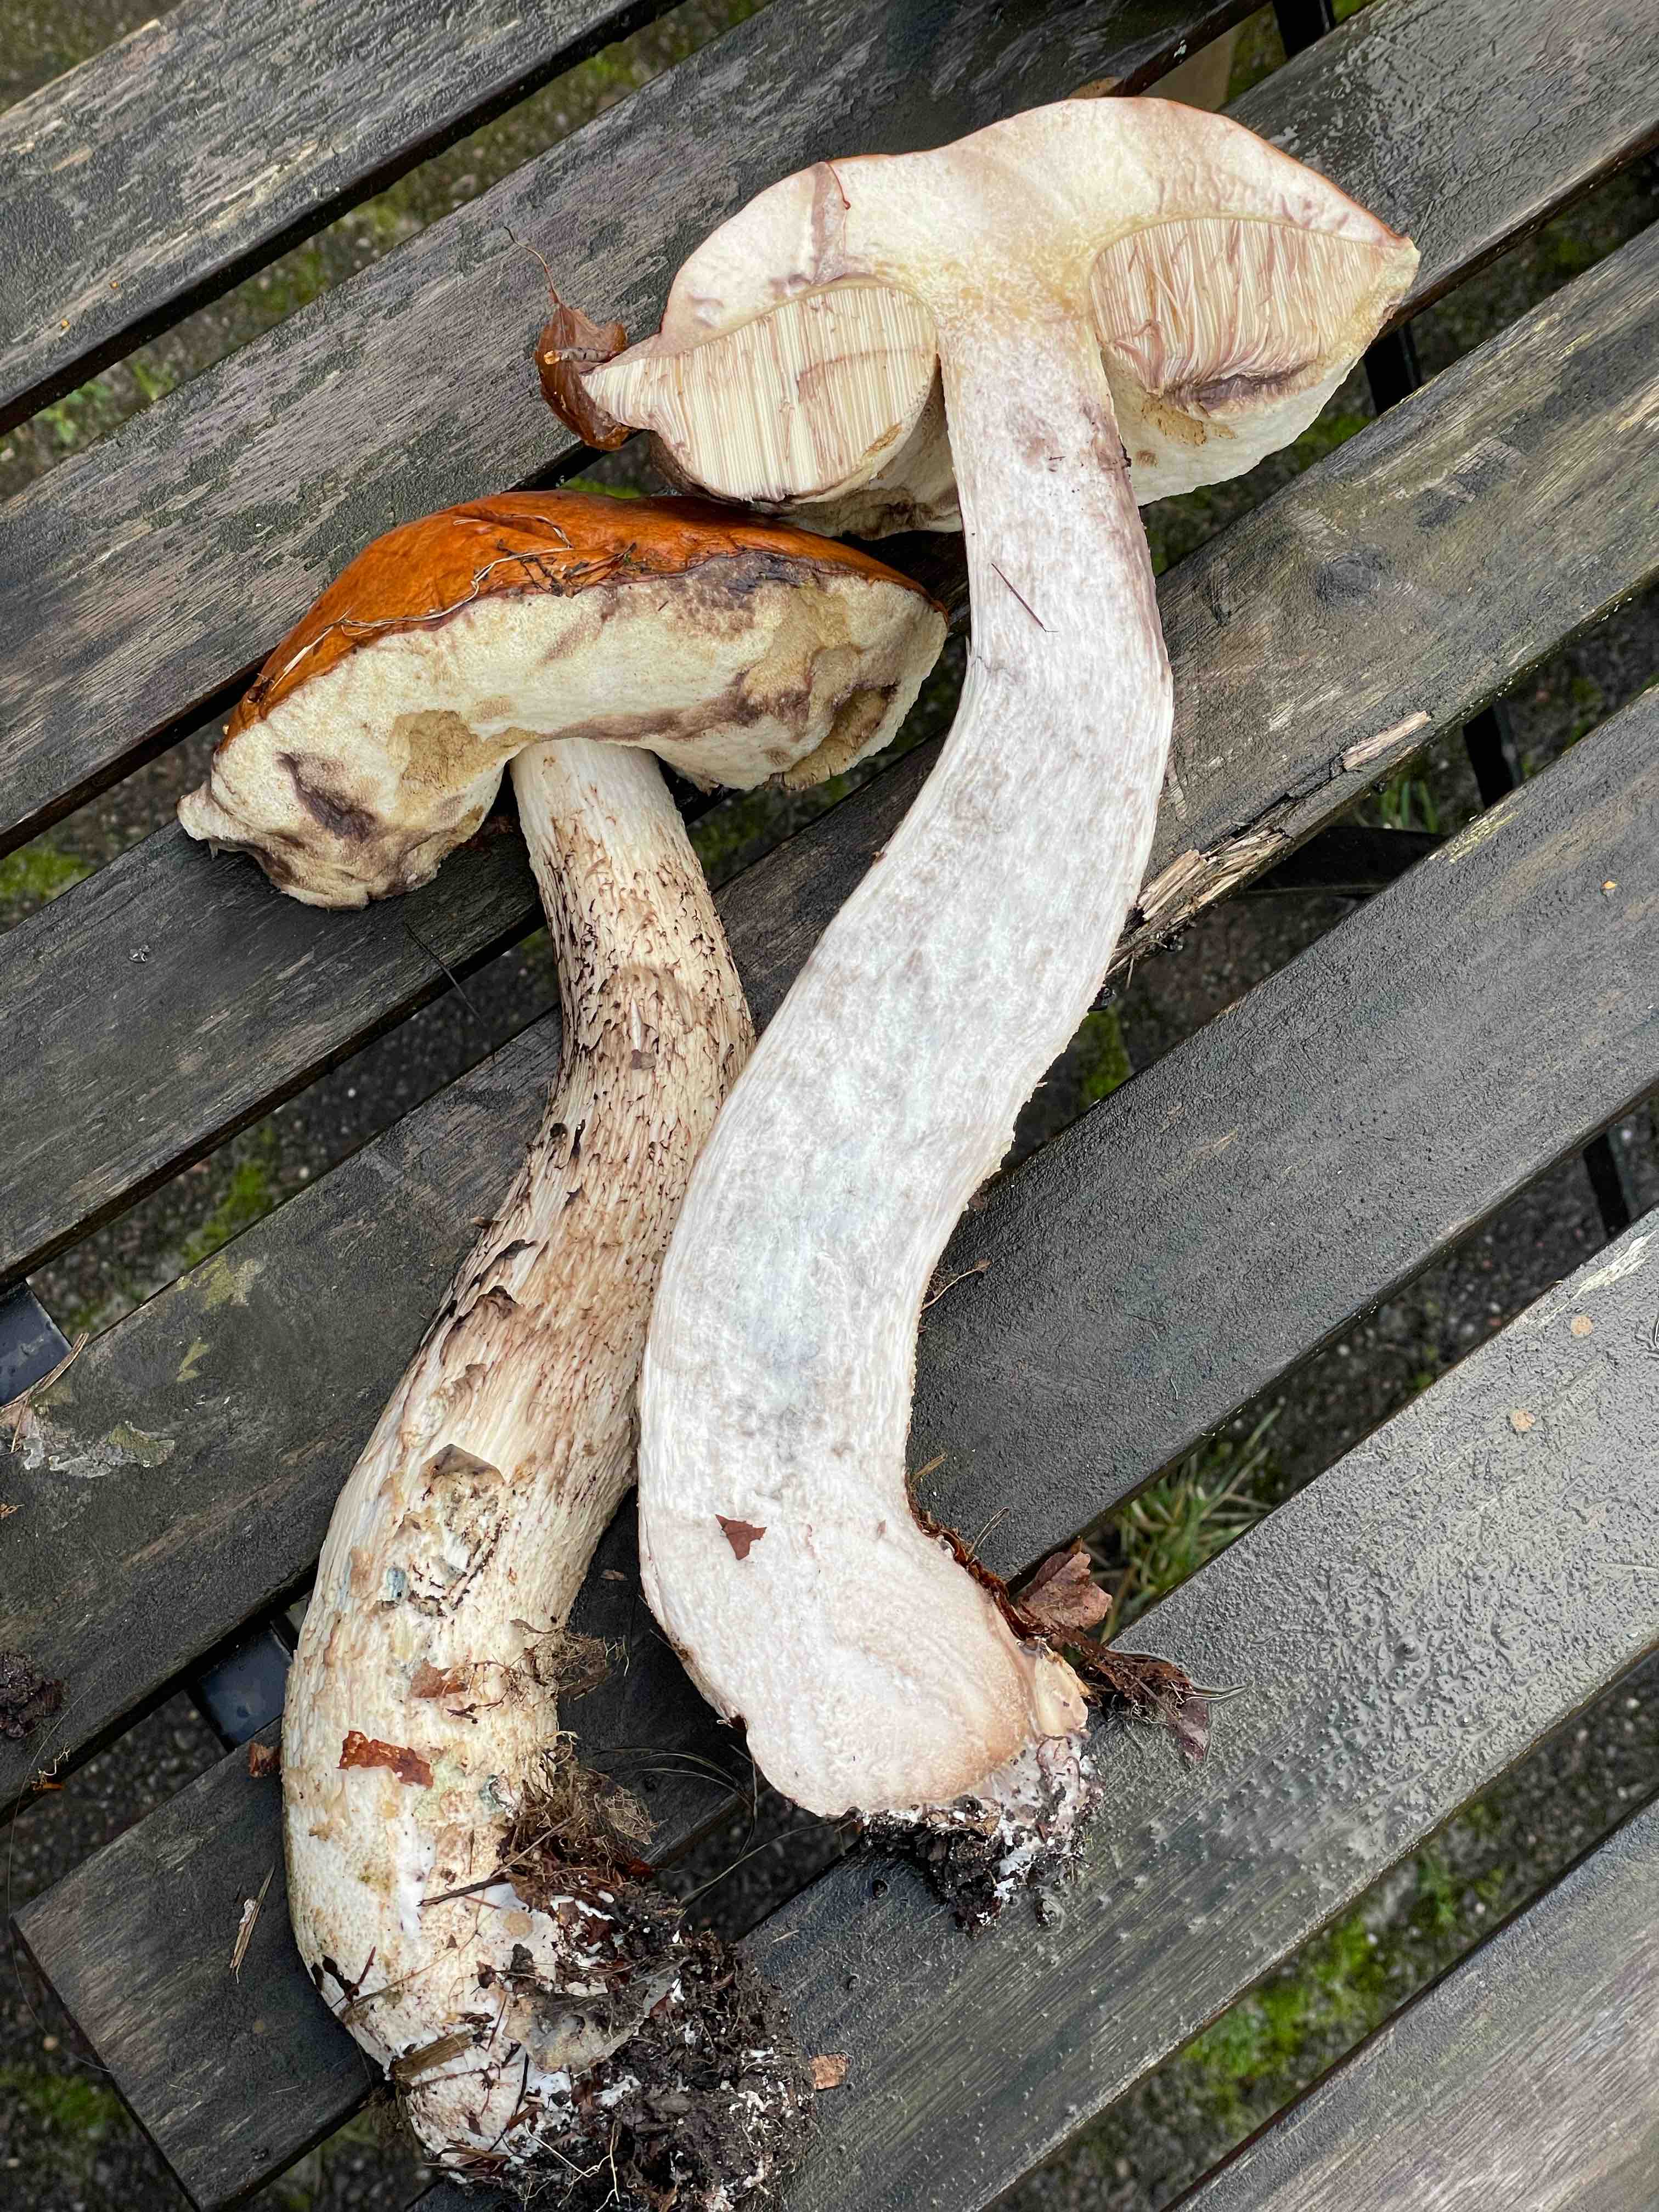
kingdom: Fungi
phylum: Basidiomycota
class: Agaricomycetes
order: Boletales
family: Boletaceae
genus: Leccinum
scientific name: Leccinum albostipitatum
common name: aspe-skælrørhat
